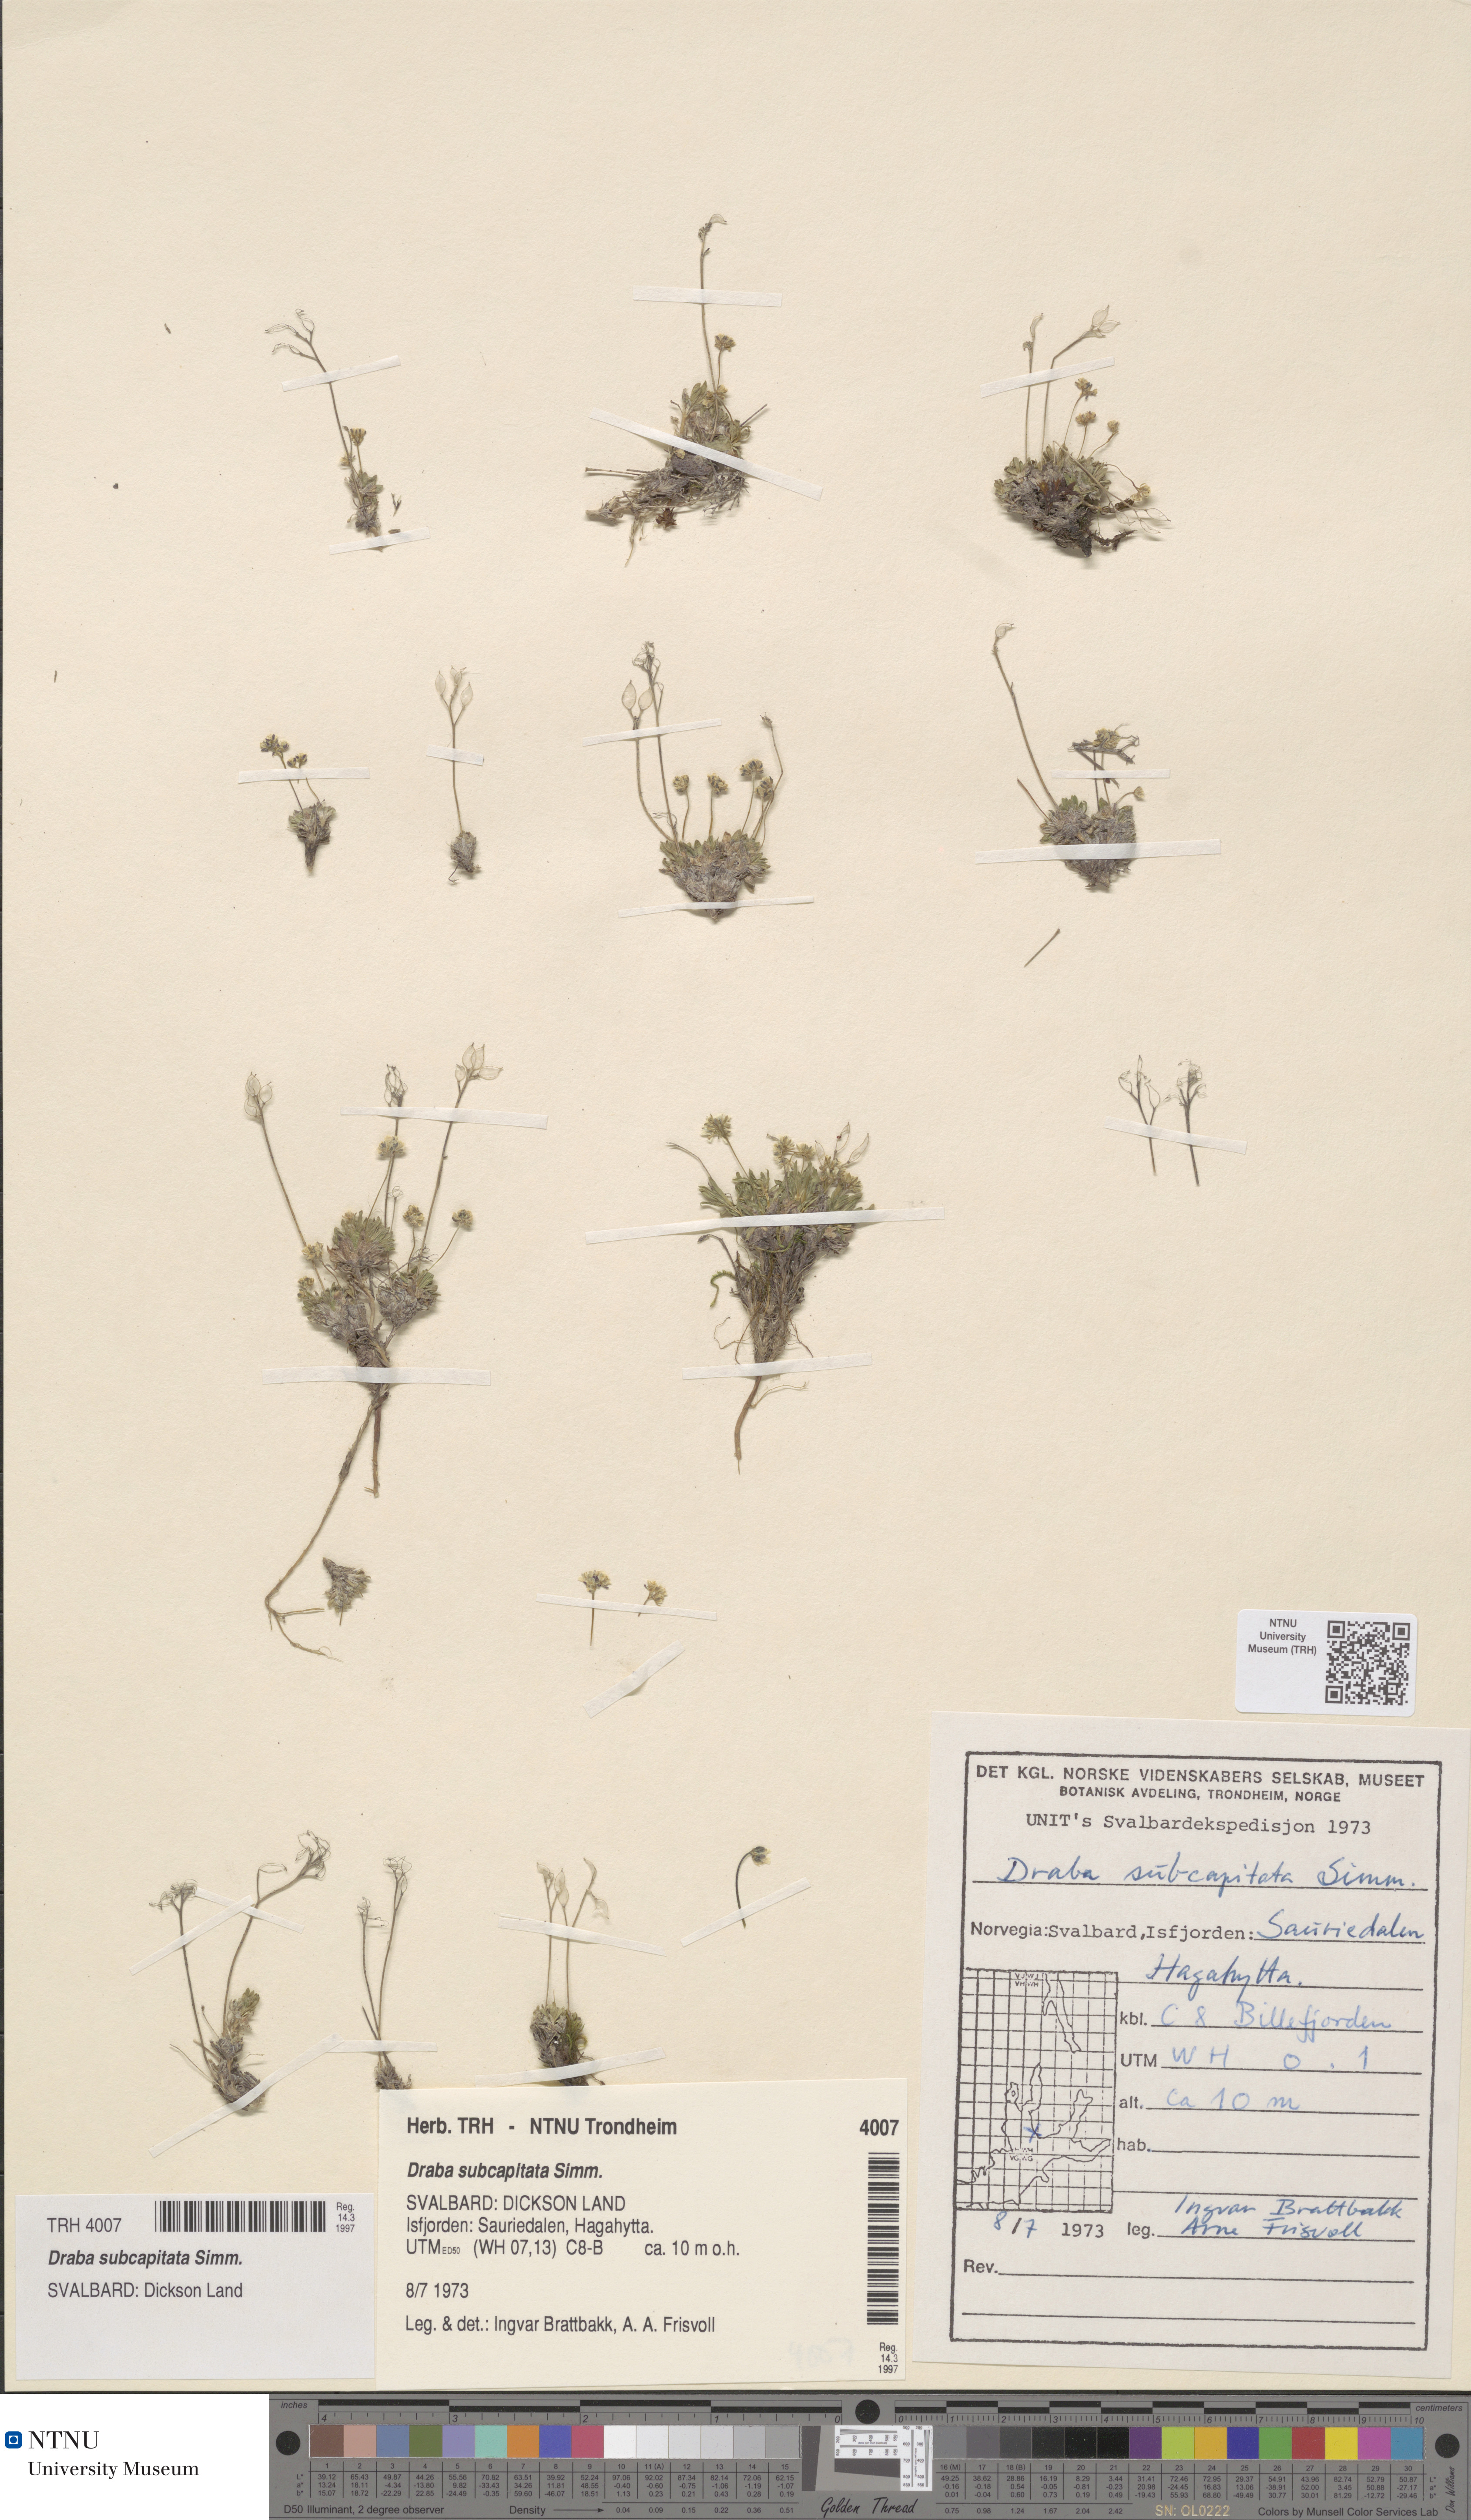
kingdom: Plantae
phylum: Tracheophyta
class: Magnoliopsida
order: Brassicales
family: Brassicaceae
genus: Draba
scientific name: Draba subcapitata
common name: Ellesmere island draba
